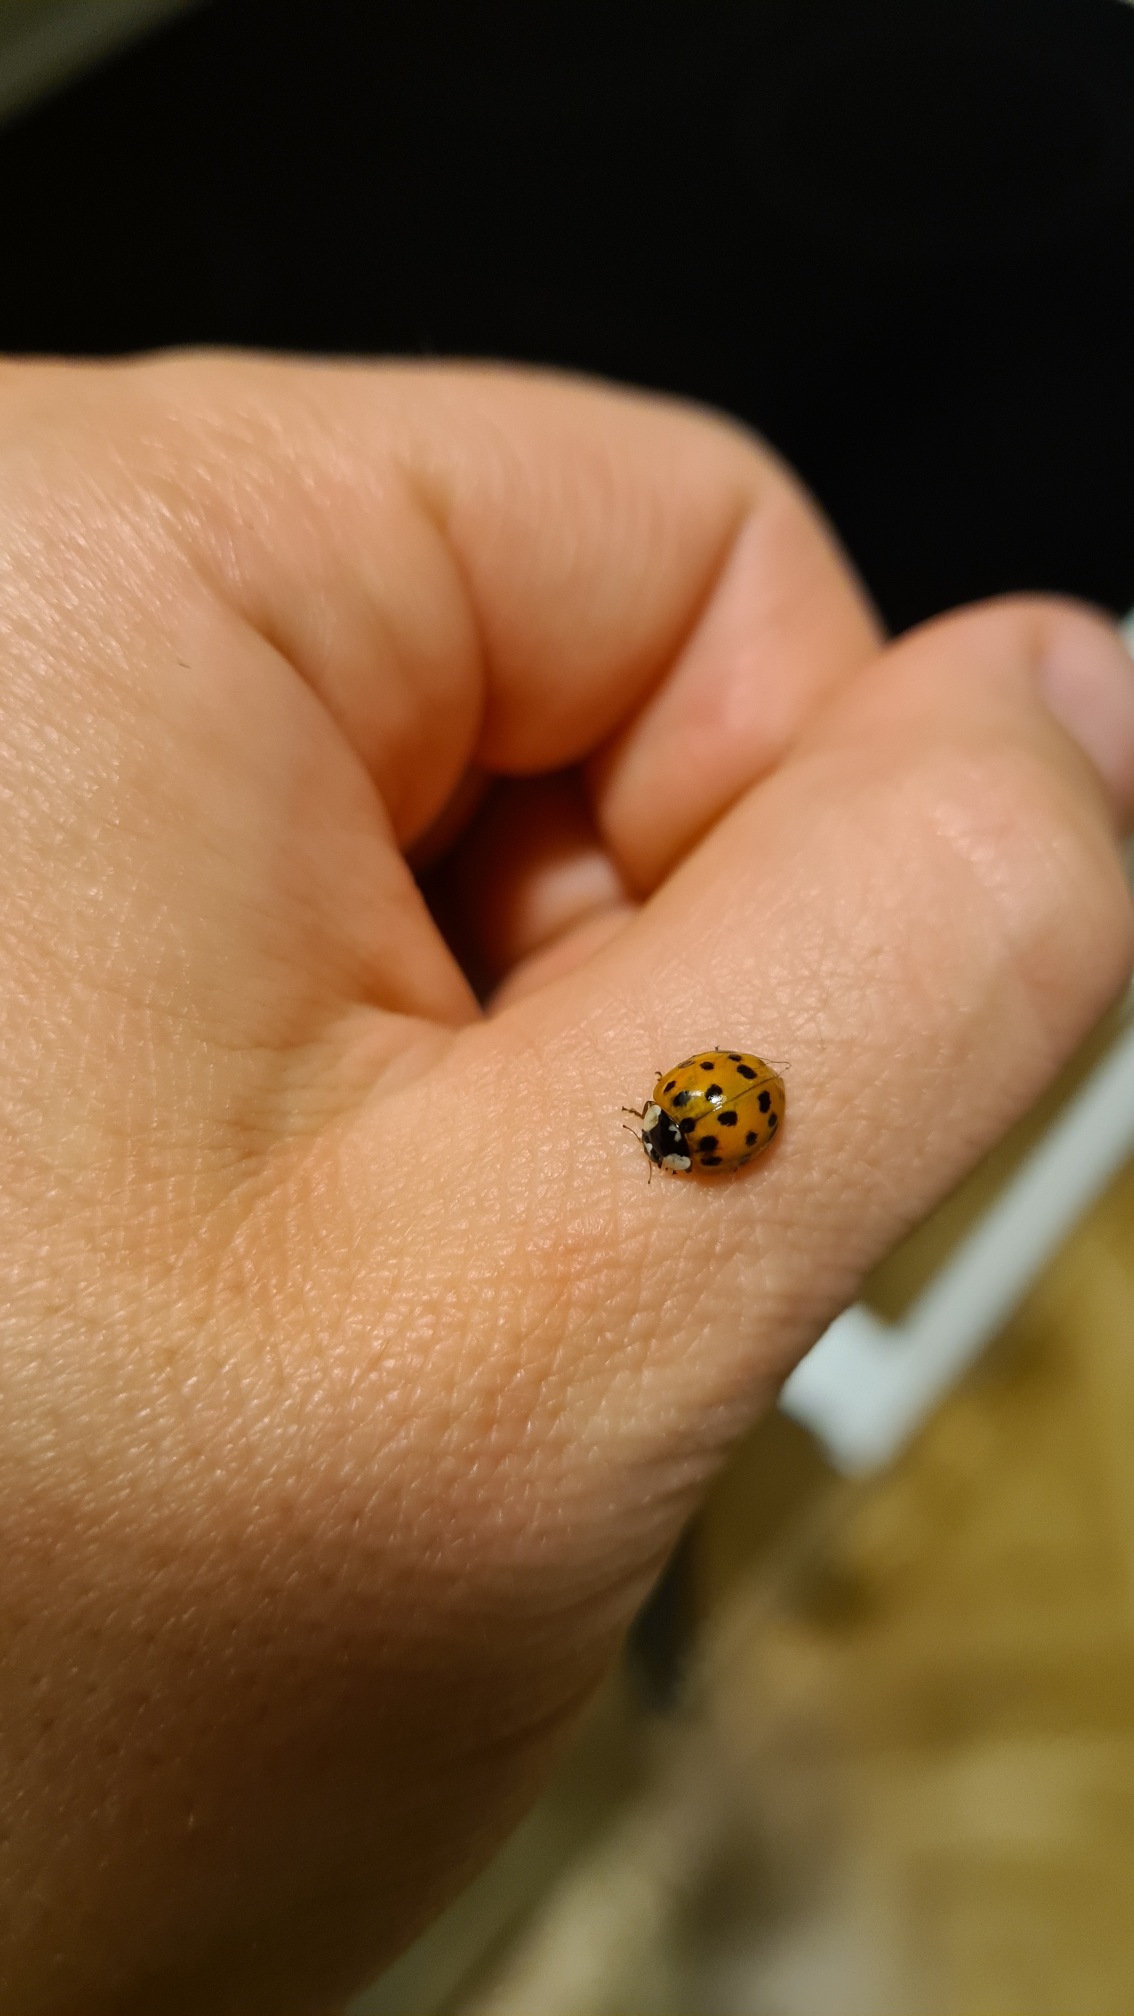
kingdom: Animalia
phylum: Arthropoda
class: Insecta
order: Coleoptera
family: Coccinellidae
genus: Harmonia
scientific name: Harmonia axyridis
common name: Harlekinmariehøne
